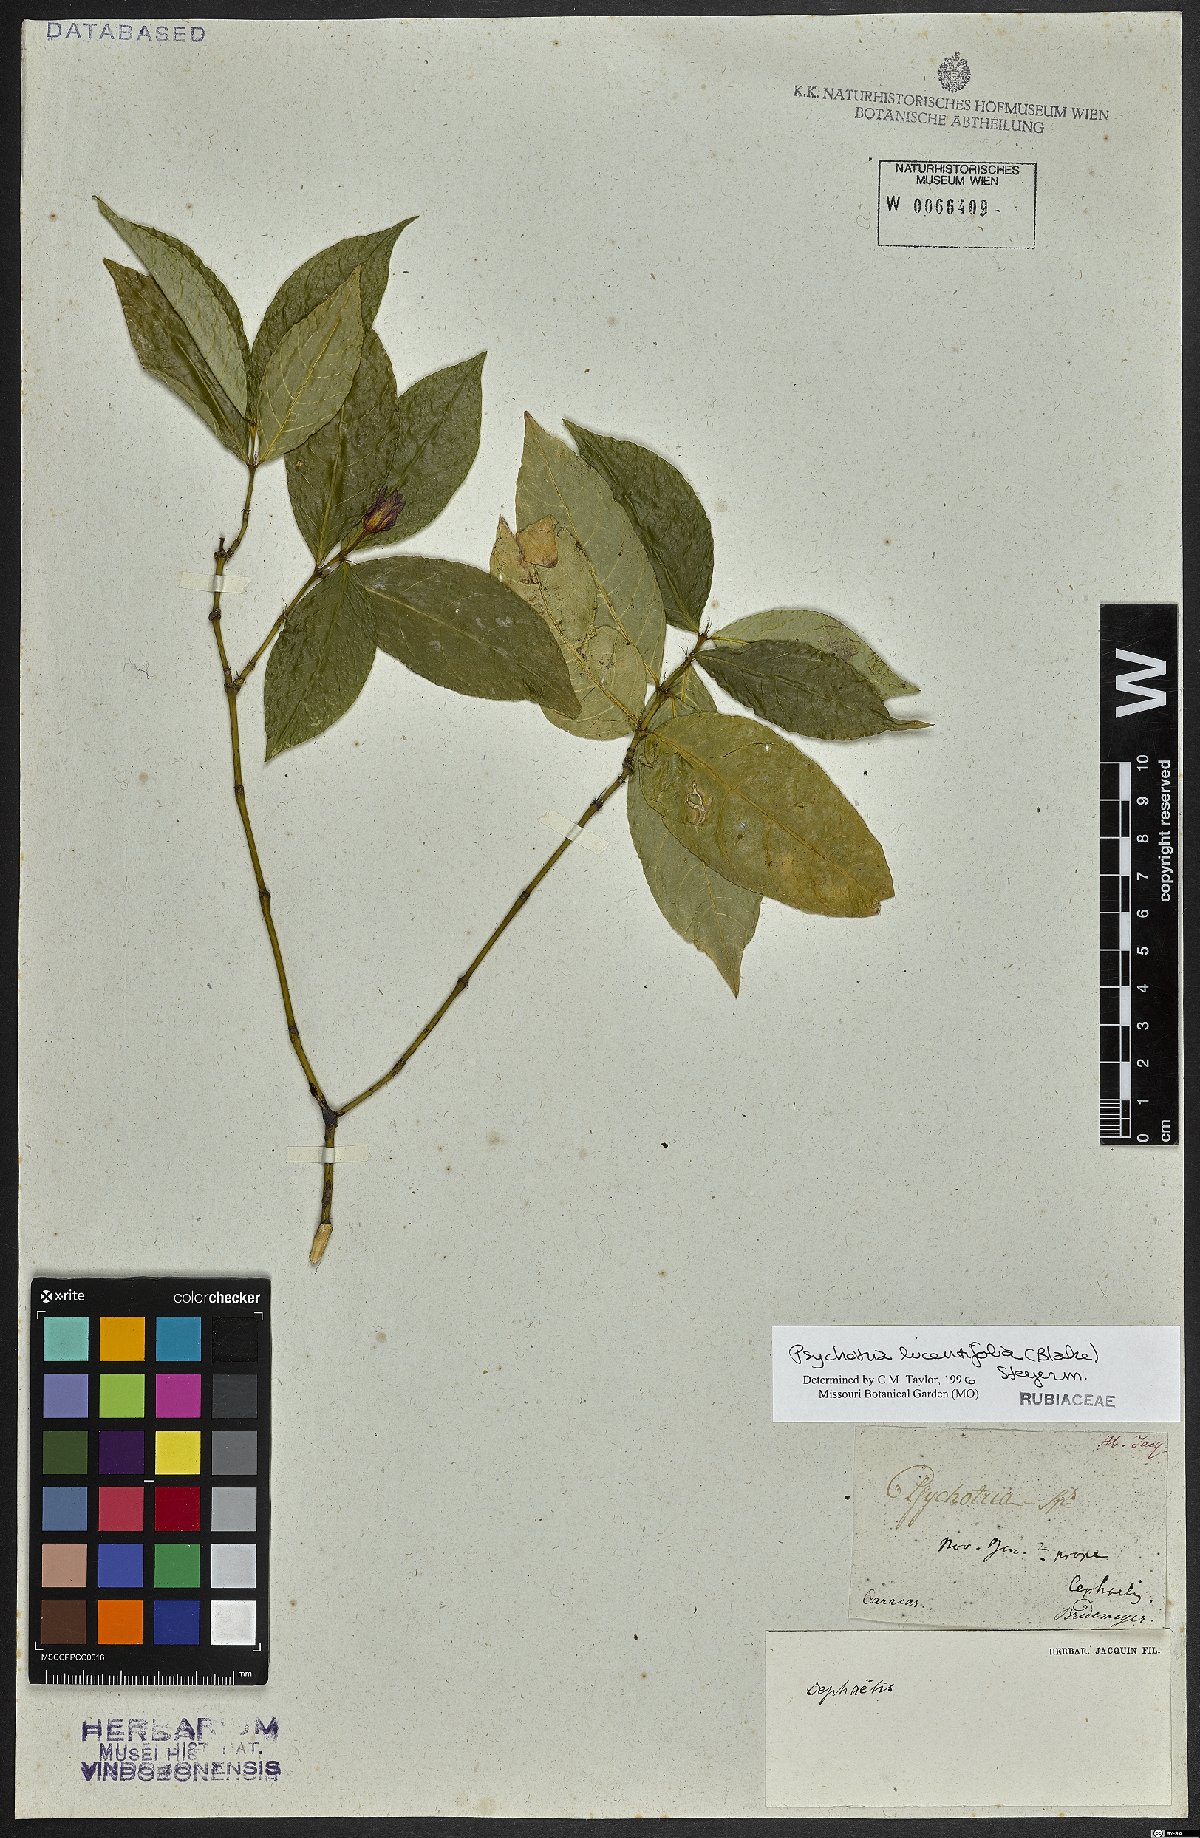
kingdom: Plantae
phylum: Tracheophyta
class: Magnoliopsida
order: Gentianales
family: Rubiaceae
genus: Palicourea
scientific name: Palicourea ostreophora
